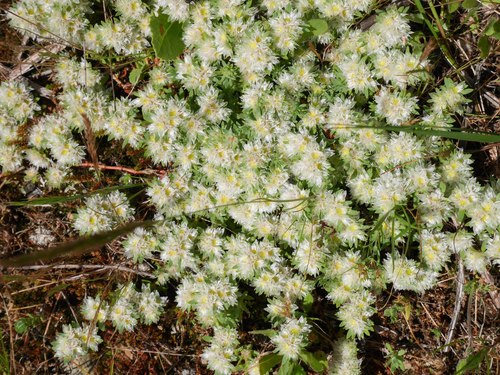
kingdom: Plantae
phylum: Tracheophyta
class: Magnoliopsida
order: Caryophyllales
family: Caryophyllaceae
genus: Paronychia
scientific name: Paronychia argentea
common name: Silver nailroot
